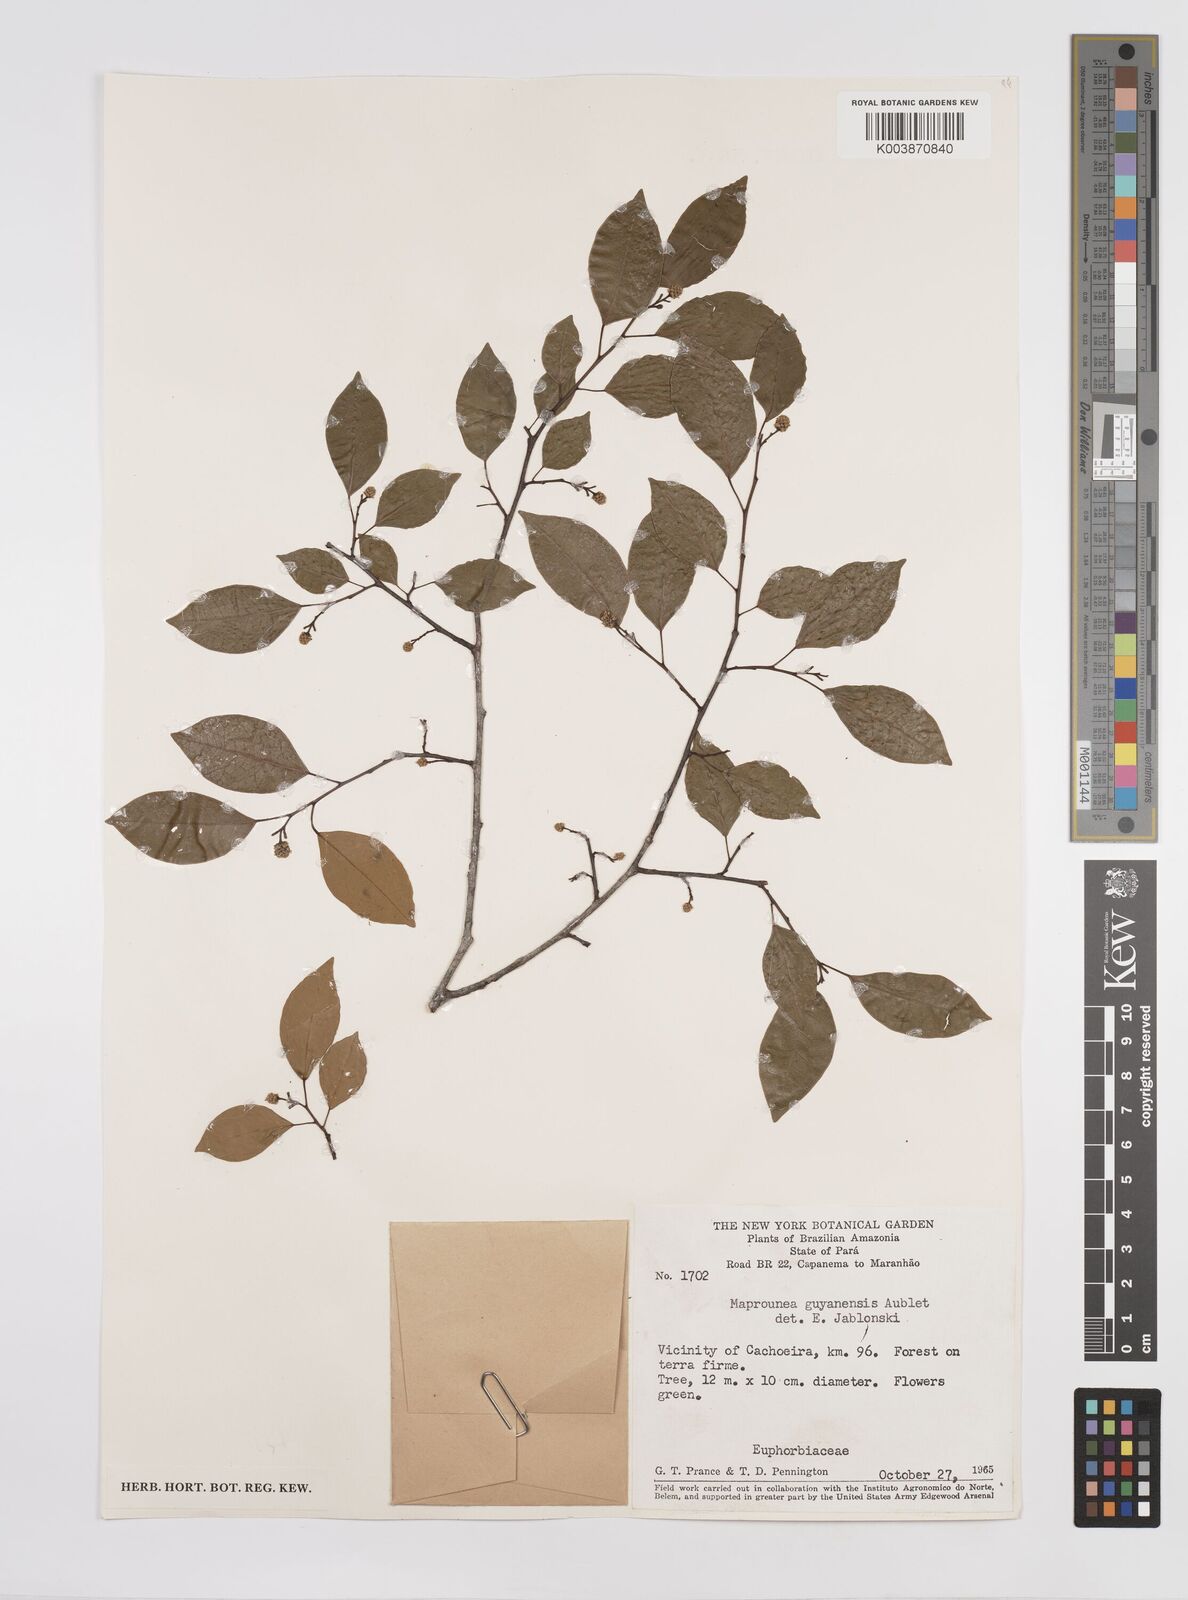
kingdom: Plantae
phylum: Tracheophyta
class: Magnoliopsida
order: Malpighiales
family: Euphorbiaceae
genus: Maprounea
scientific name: Maprounea guianensis
